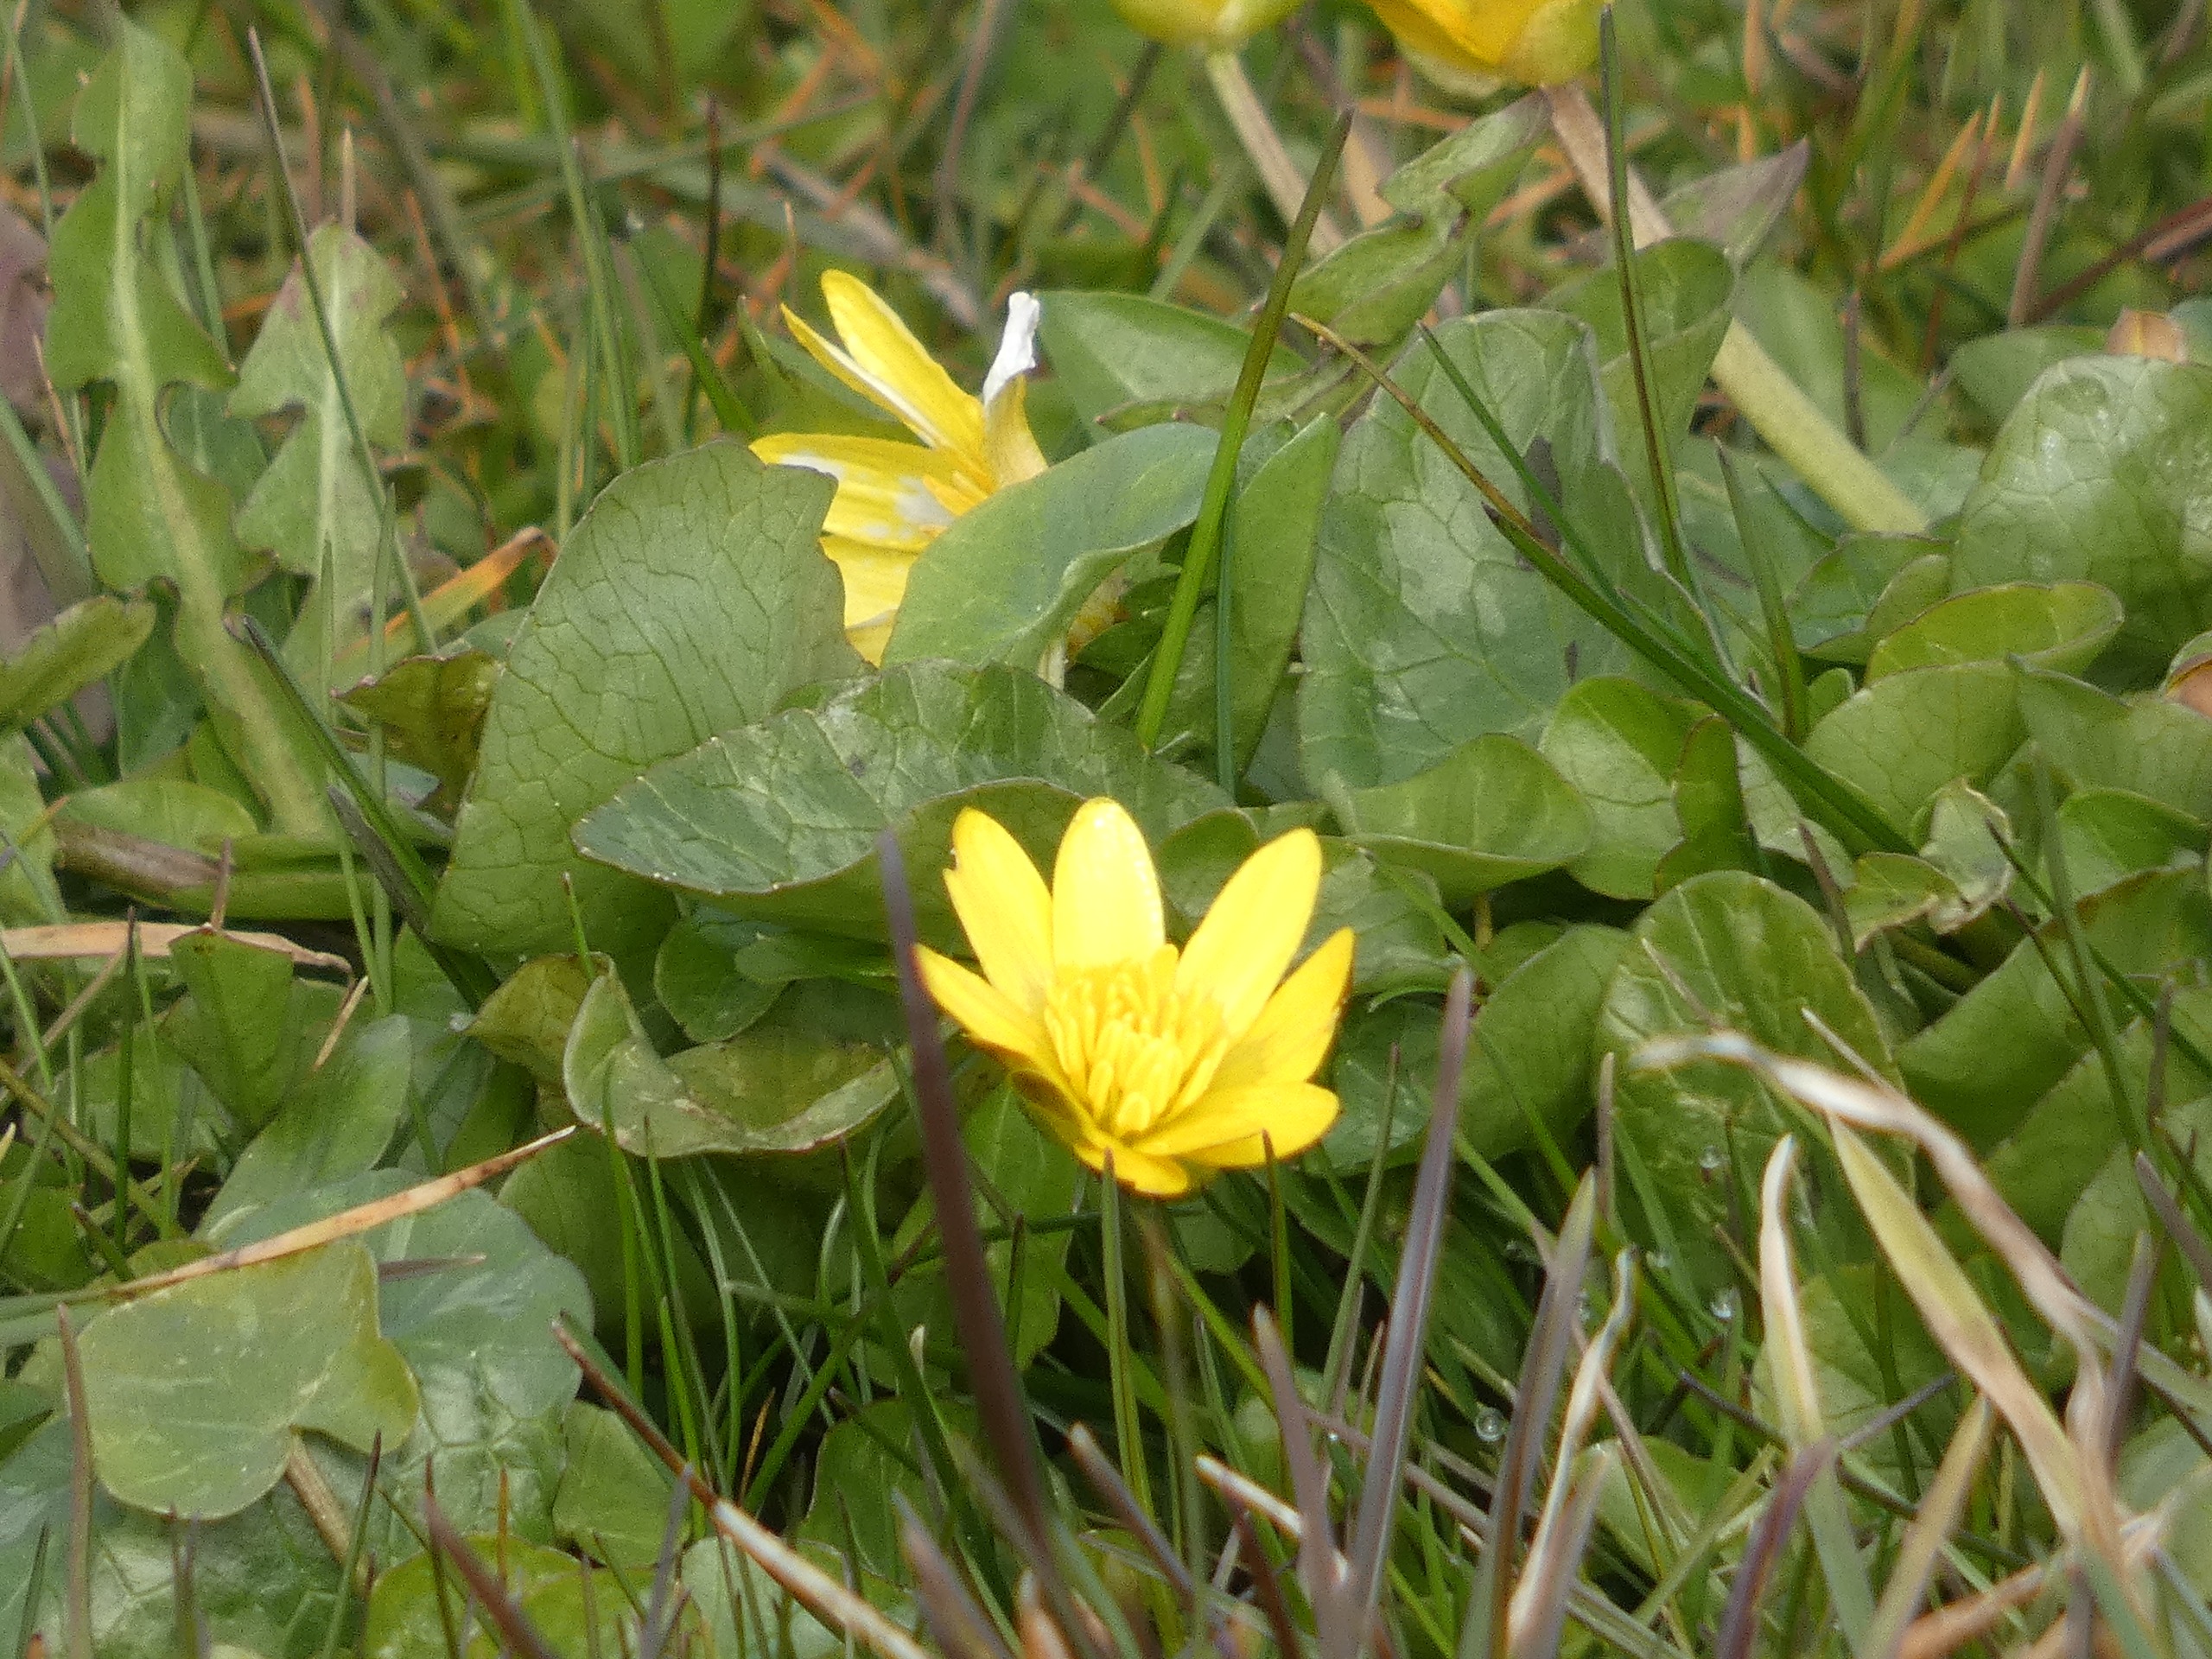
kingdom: Plantae
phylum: Tracheophyta
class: Magnoliopsida
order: Ranunculales
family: Ranunculaceae
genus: Ficaria
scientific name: Ficaria verna
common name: Vorterod
